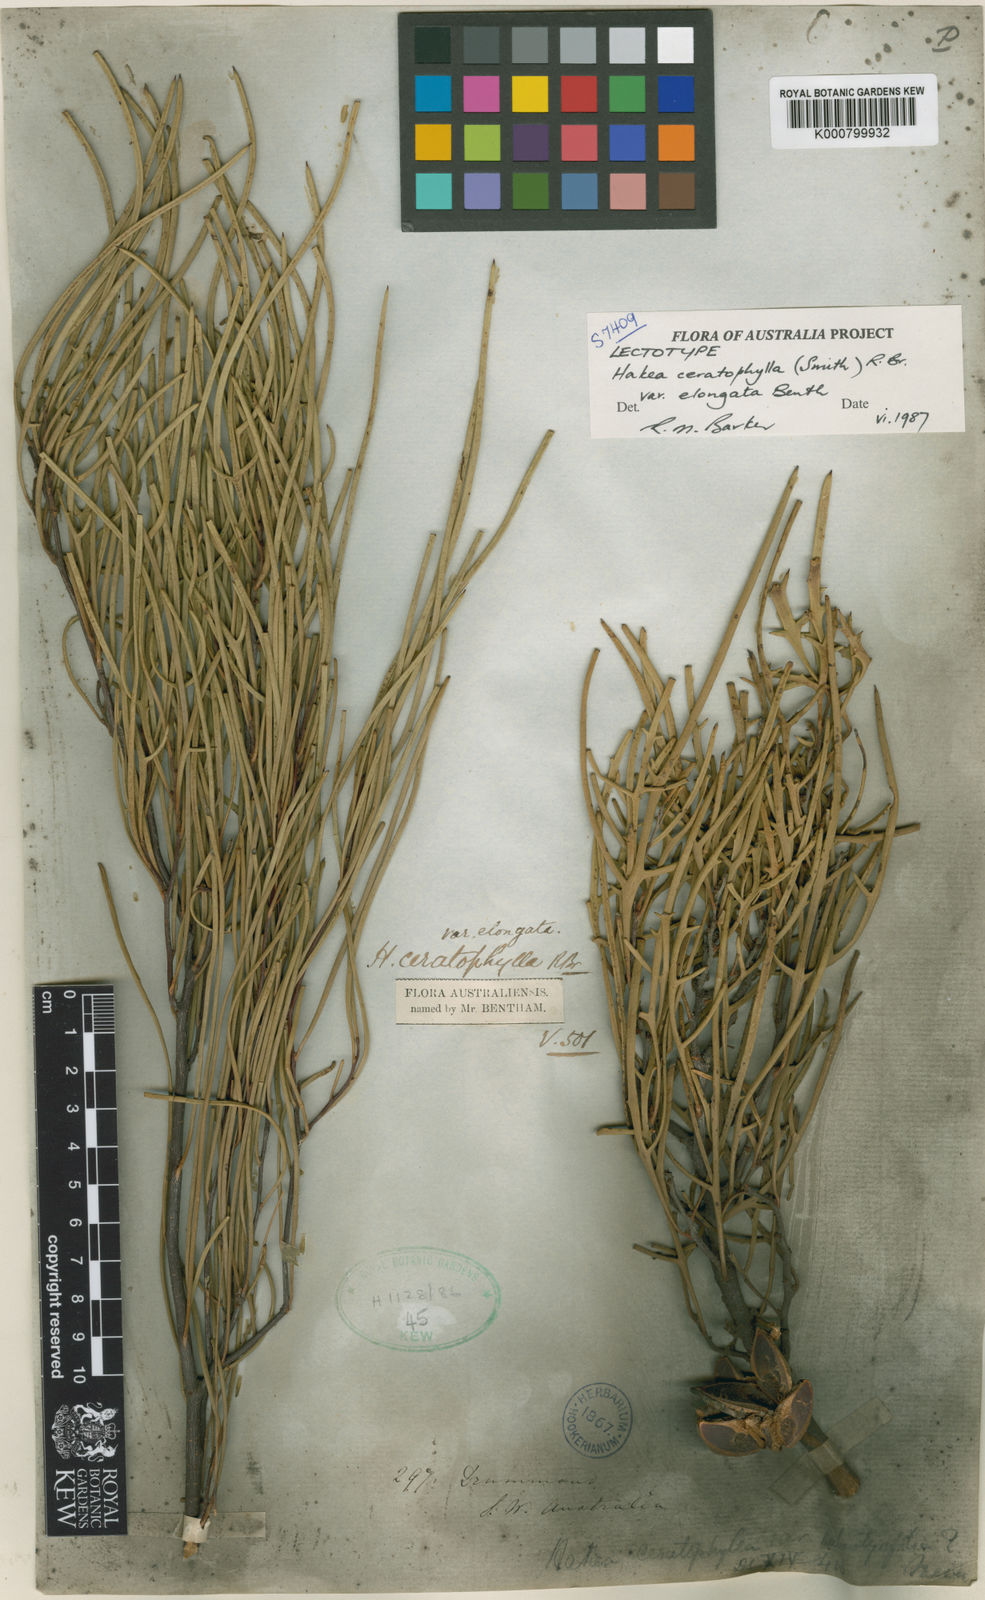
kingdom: Plantae
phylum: Tracheophyta
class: Magnoliopsida
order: Proteales
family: Proteaceae
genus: Hakea
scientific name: Hakea ceratophylla
